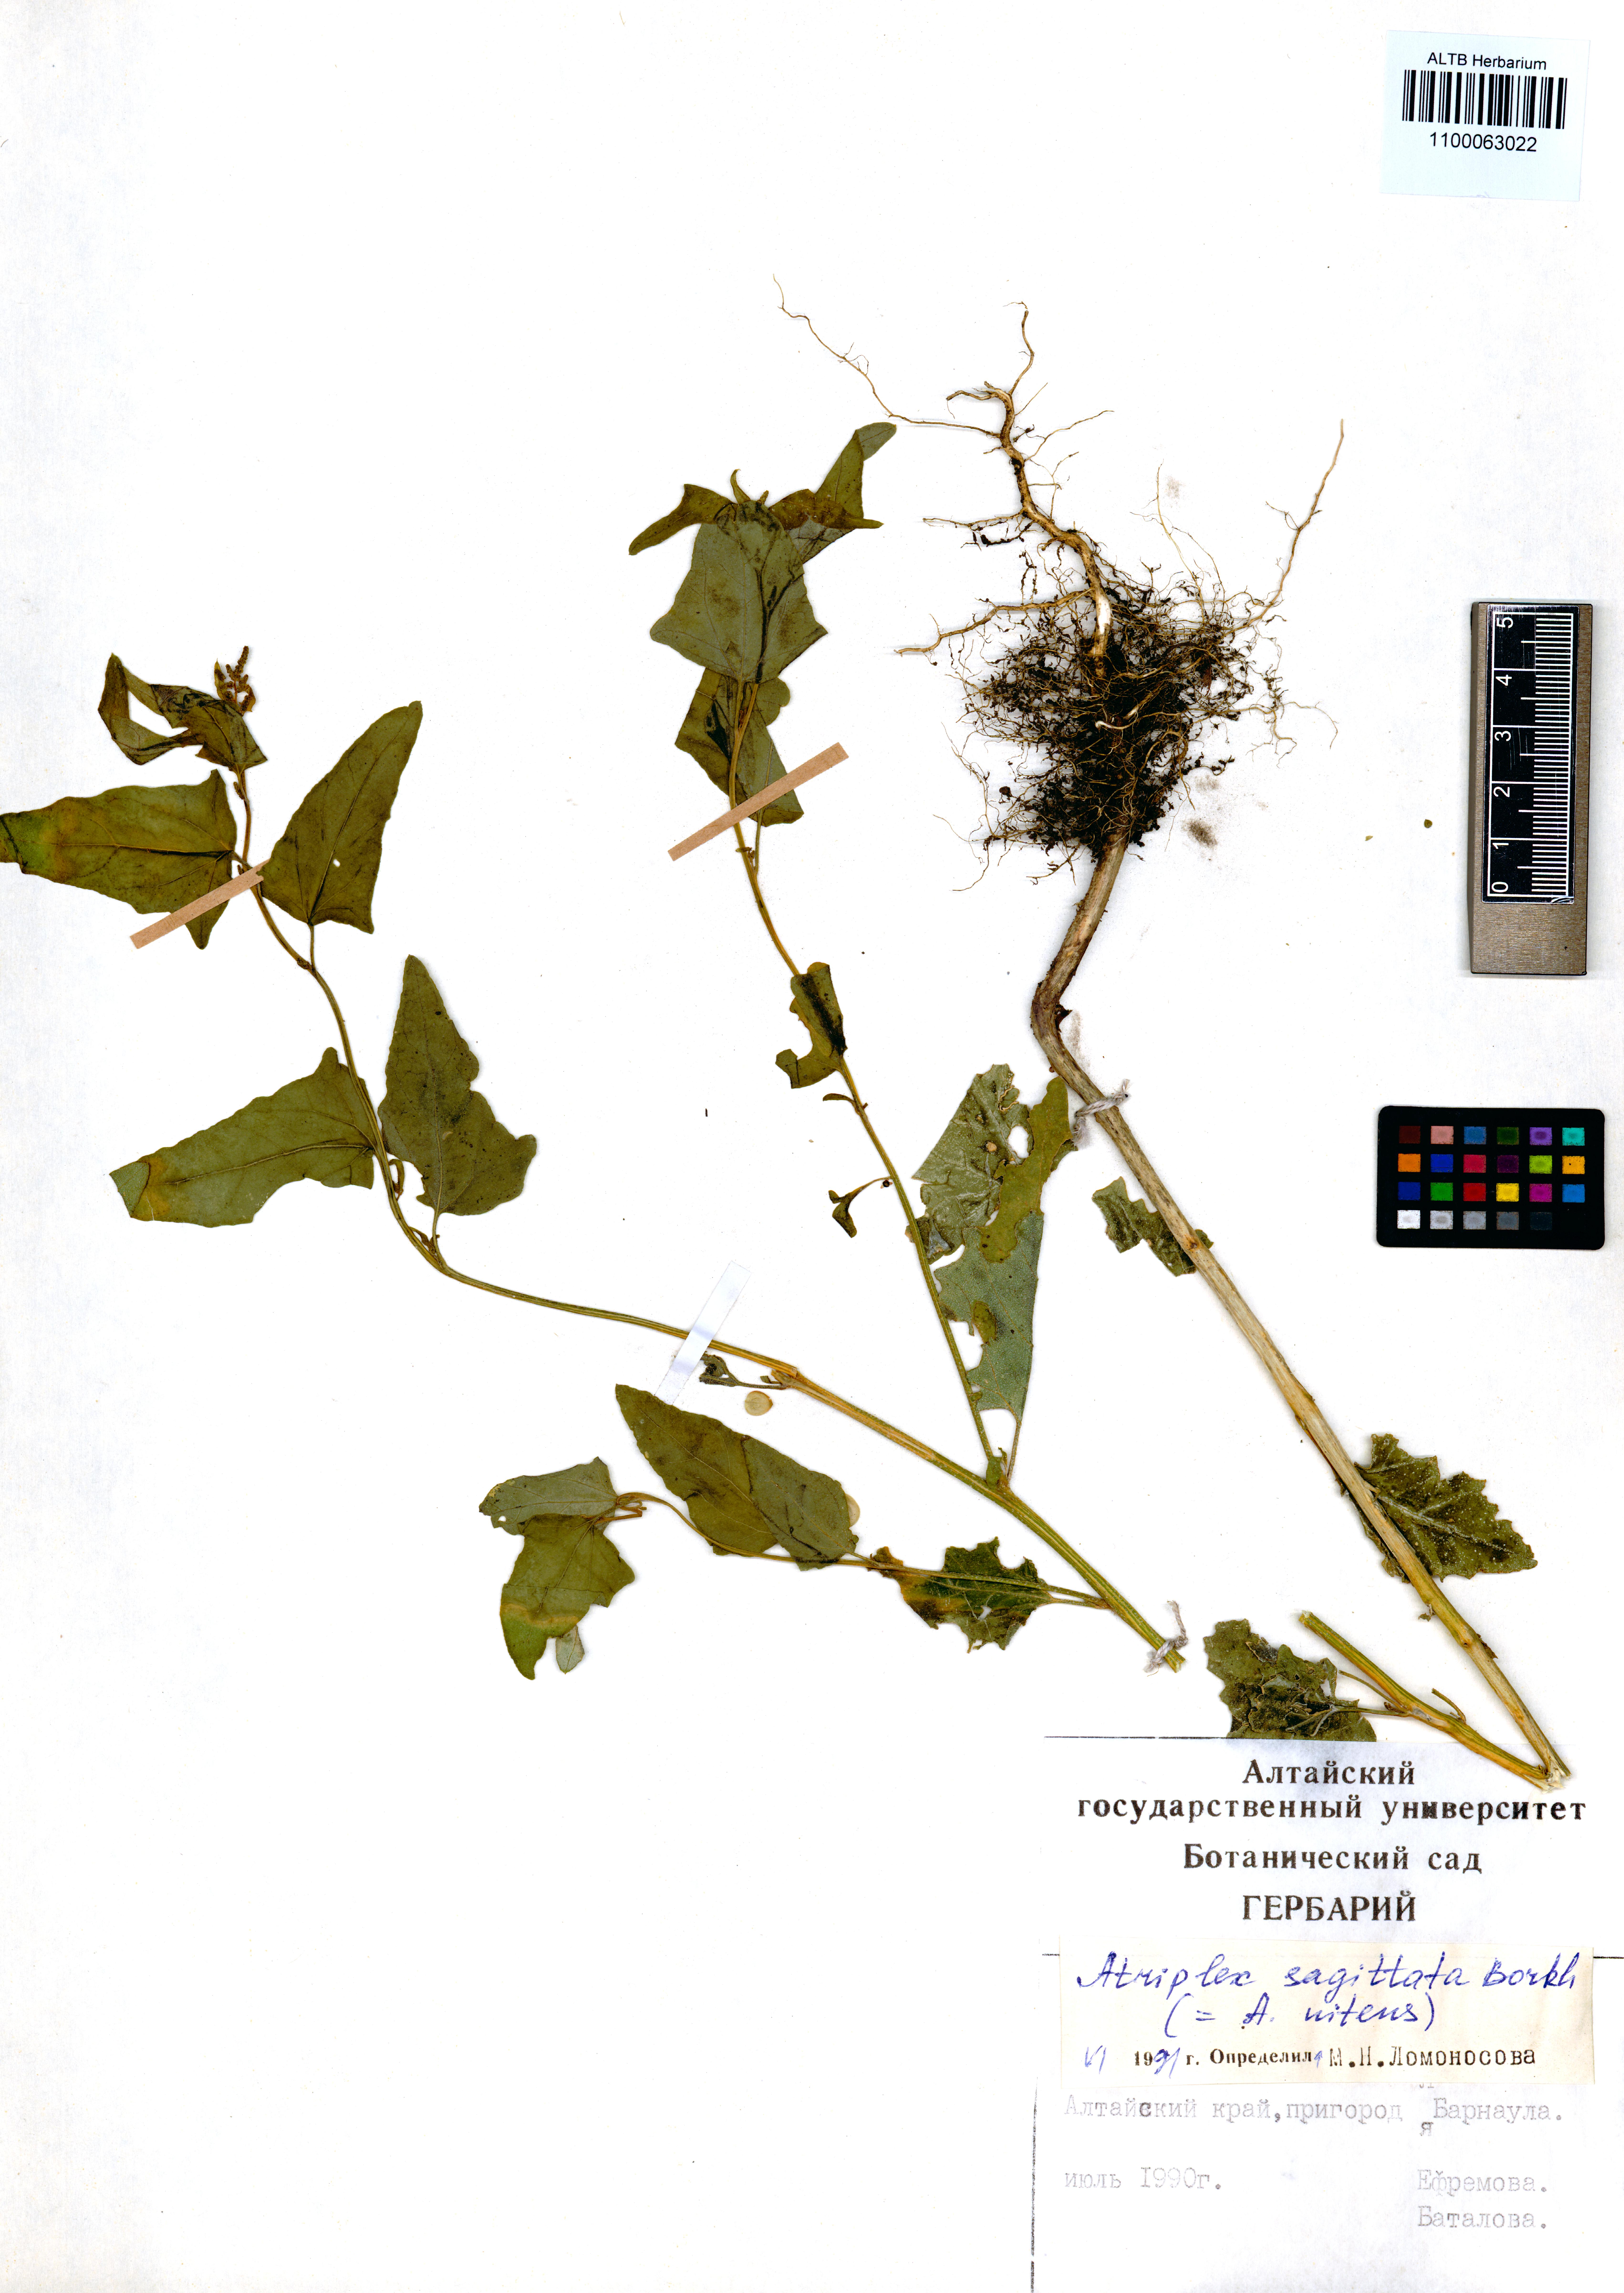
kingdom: Plantae
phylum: Tracheophyta
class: Magnoliopsida
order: Caryophyllales
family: Amaranthaceae
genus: Atriplex
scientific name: Atriplex sagittata
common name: Purple orache
